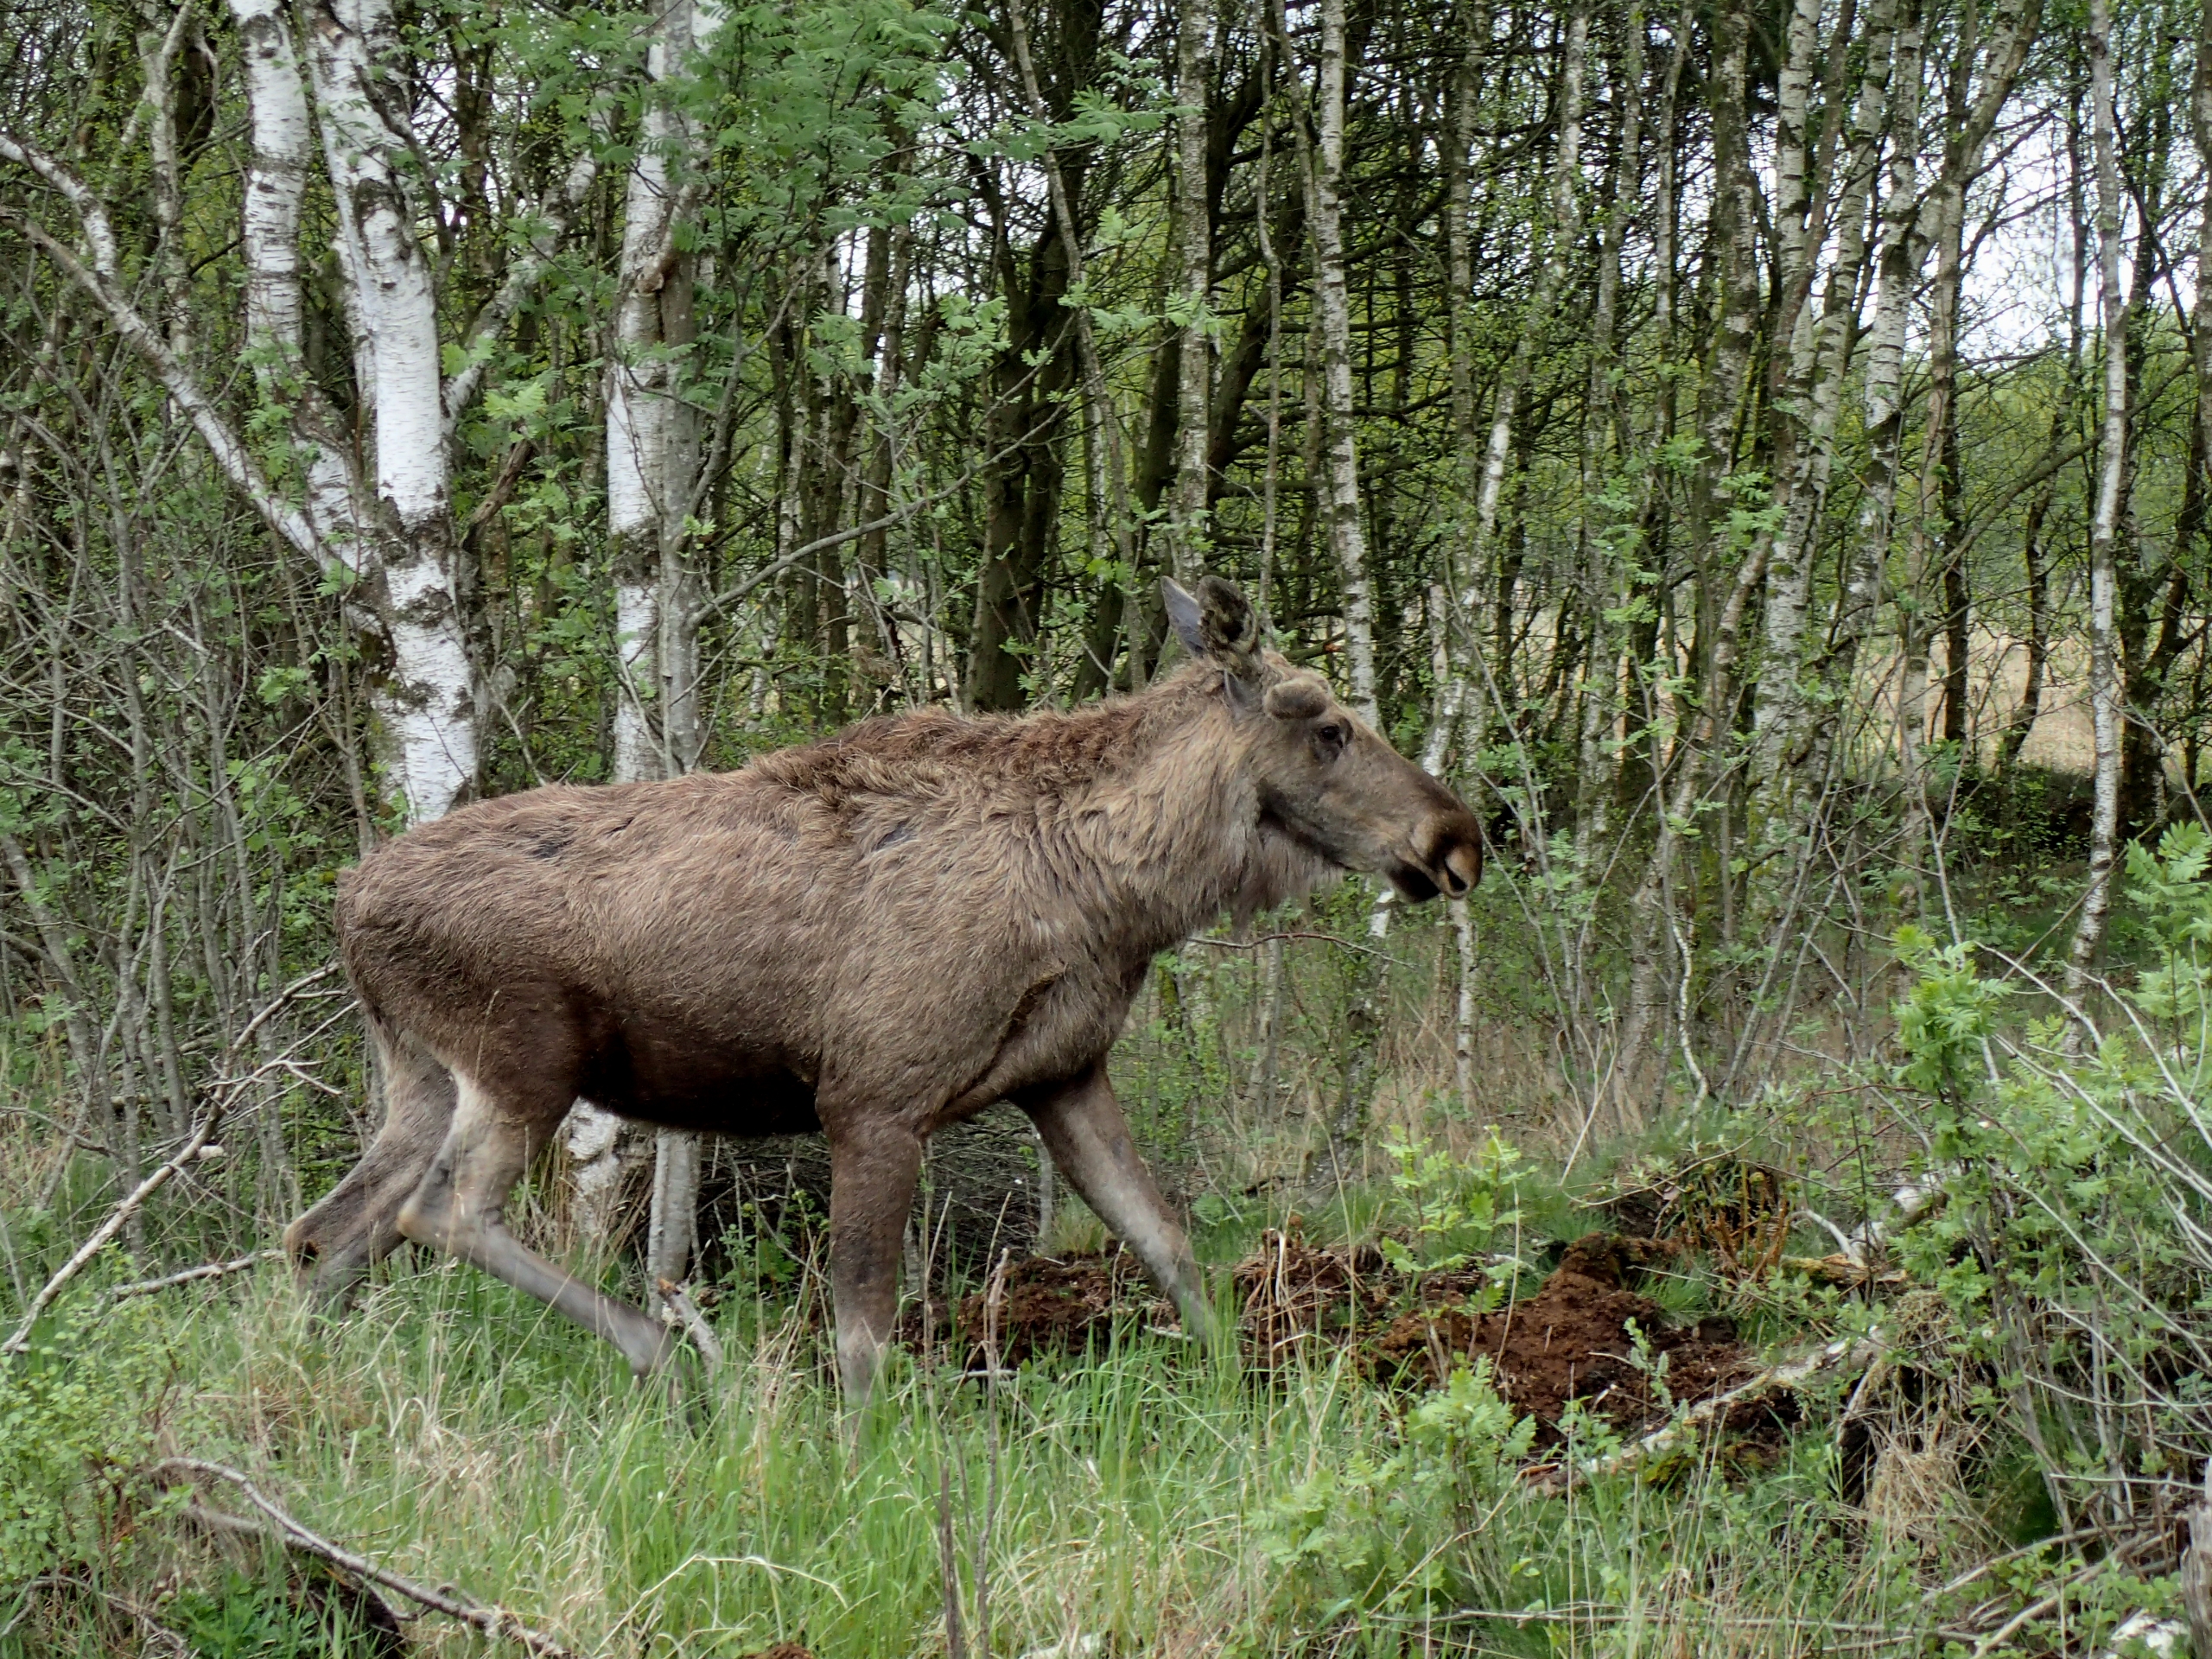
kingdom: Animalia
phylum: Chordata
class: Mammalia
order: Artiodactyla
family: Cervidae
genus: Alces
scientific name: Alces alces
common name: Elg
